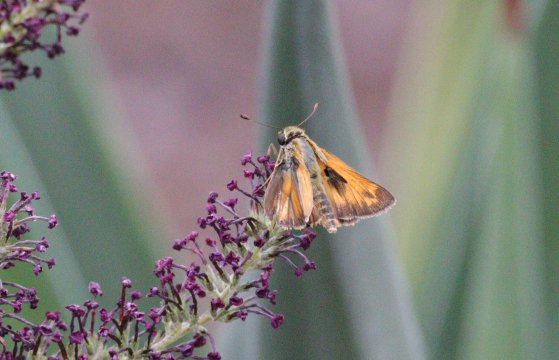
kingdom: Animalia
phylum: Arthropoda
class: Insecta
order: Lepidoptera
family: Hesperiidae
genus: Hesperia
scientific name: Hesperia woodgatei
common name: Apache Skipper
